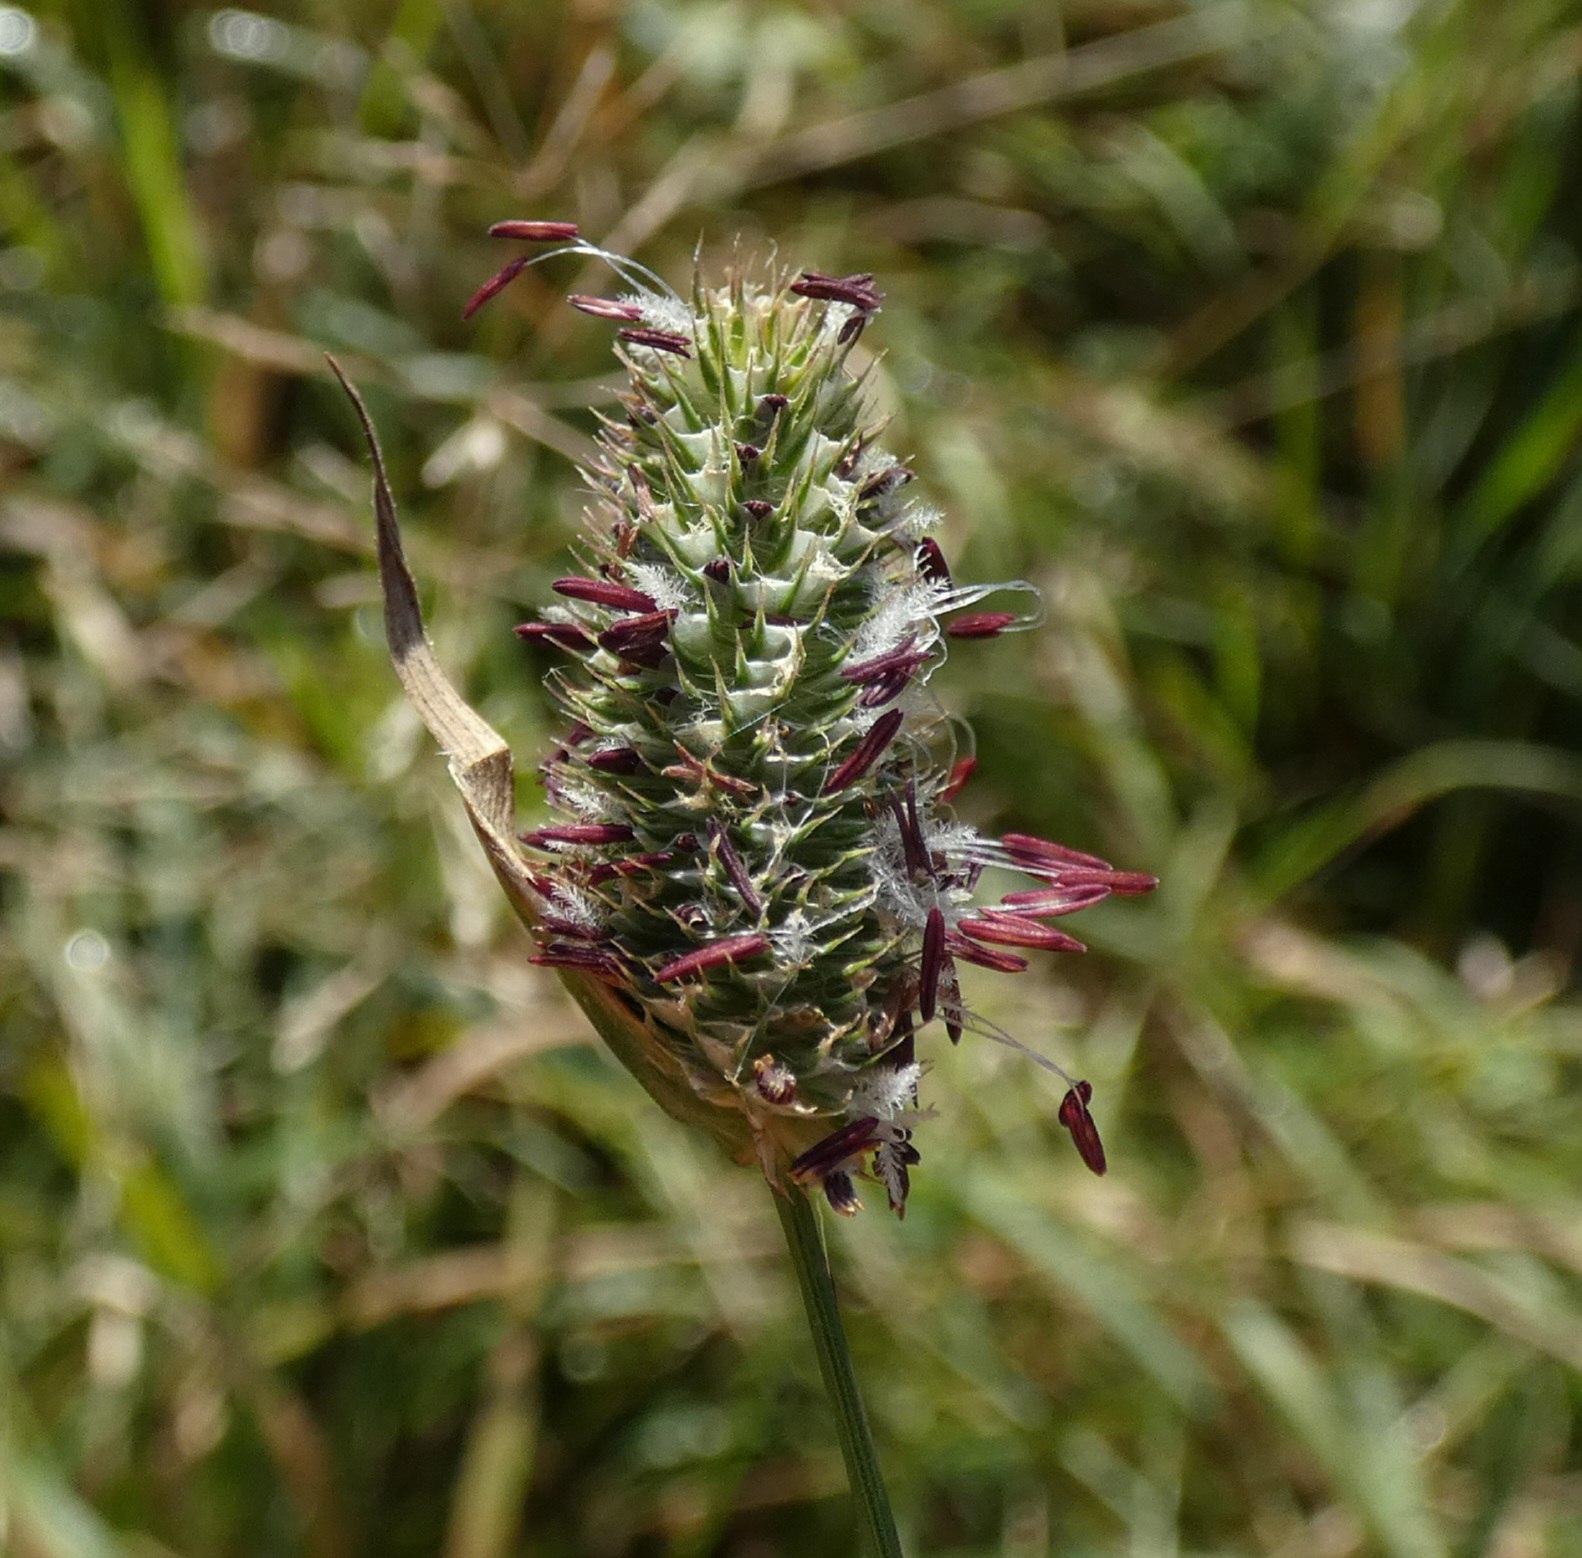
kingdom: Plantae
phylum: Tracheophyta
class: Liliopsida
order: Poales
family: Poaceae
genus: Phleum
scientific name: Phleum pratense
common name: Eng-rottehale
